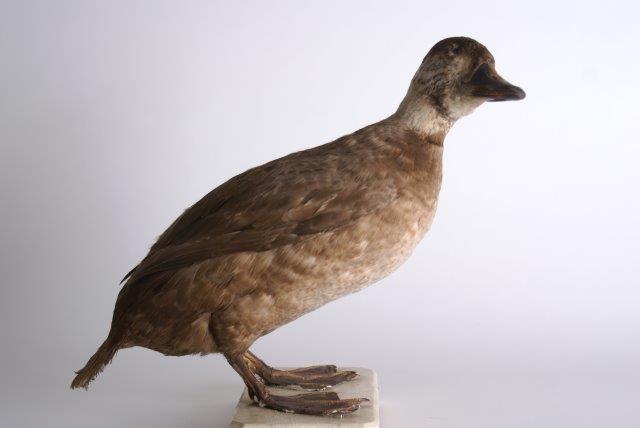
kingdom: Animalia
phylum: Chordata
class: Aves
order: Anseriformes
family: Anatidae
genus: Melanitta
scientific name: Melanitta nigra
